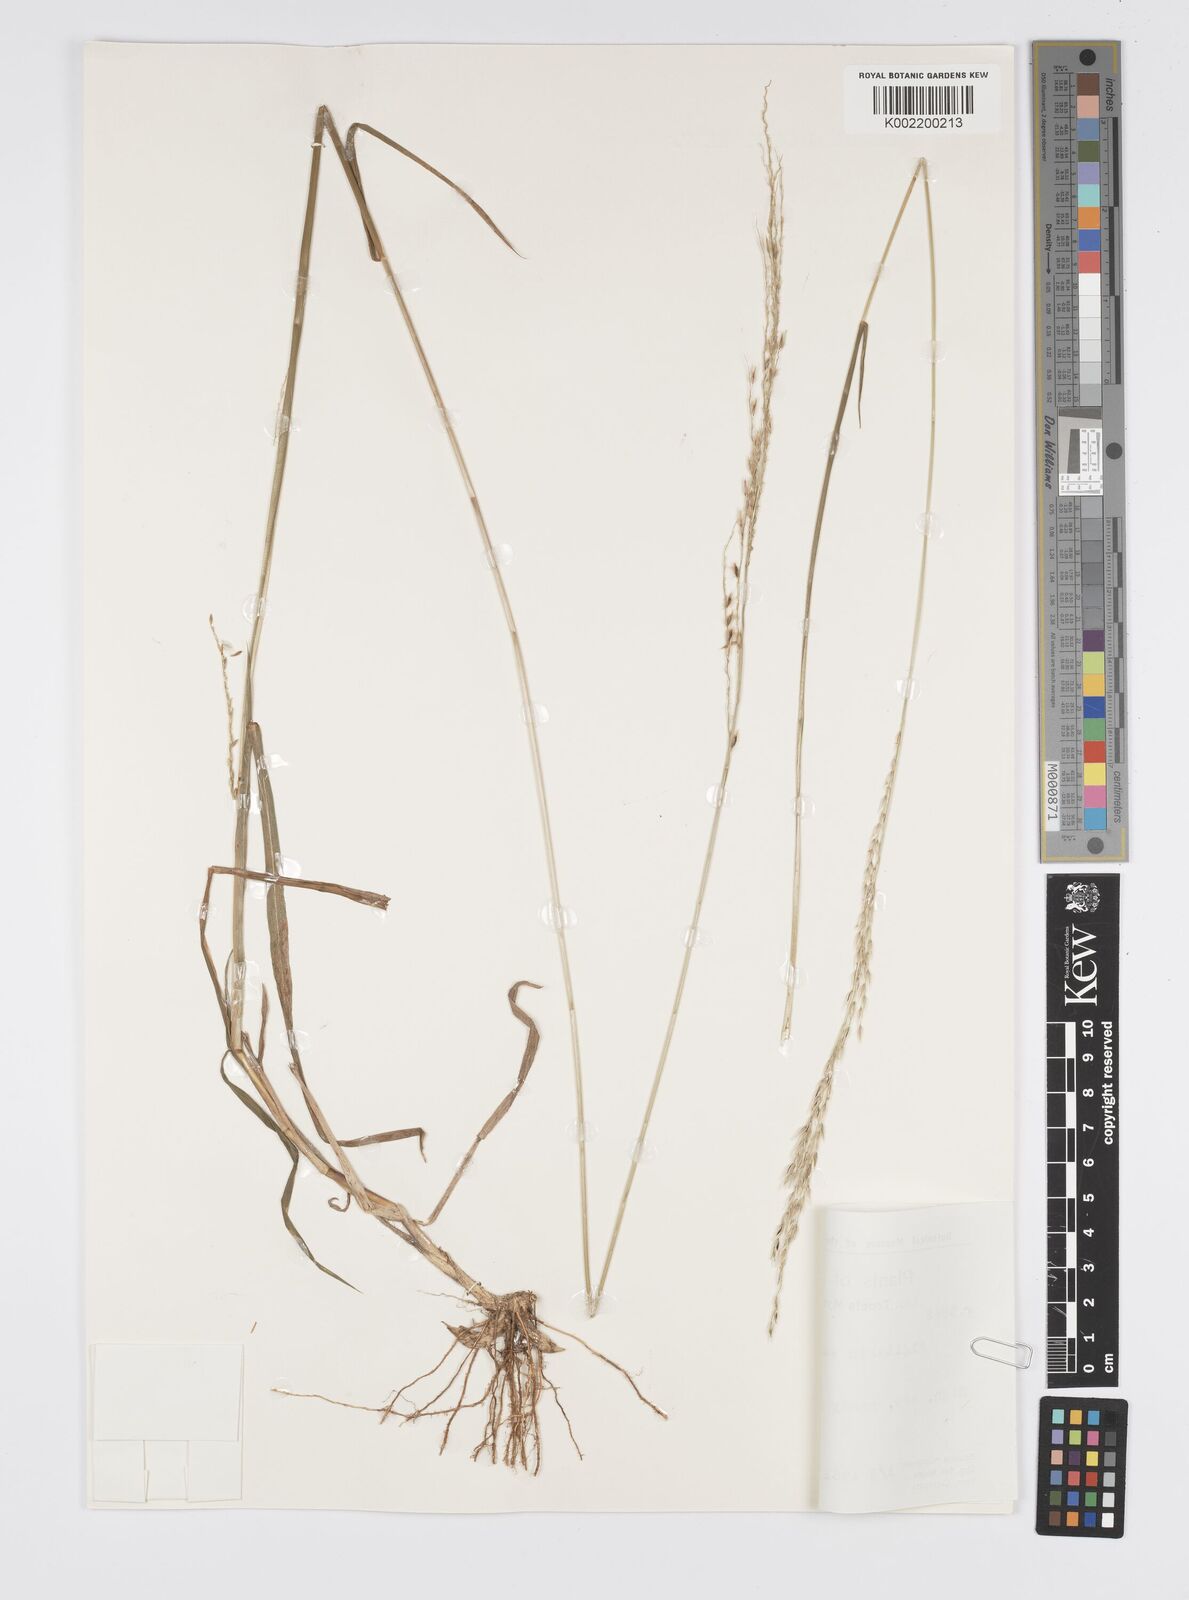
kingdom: Plantae
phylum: Tracheophyta
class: Liliopsida
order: Poales
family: Poaceae
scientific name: Poaceae
